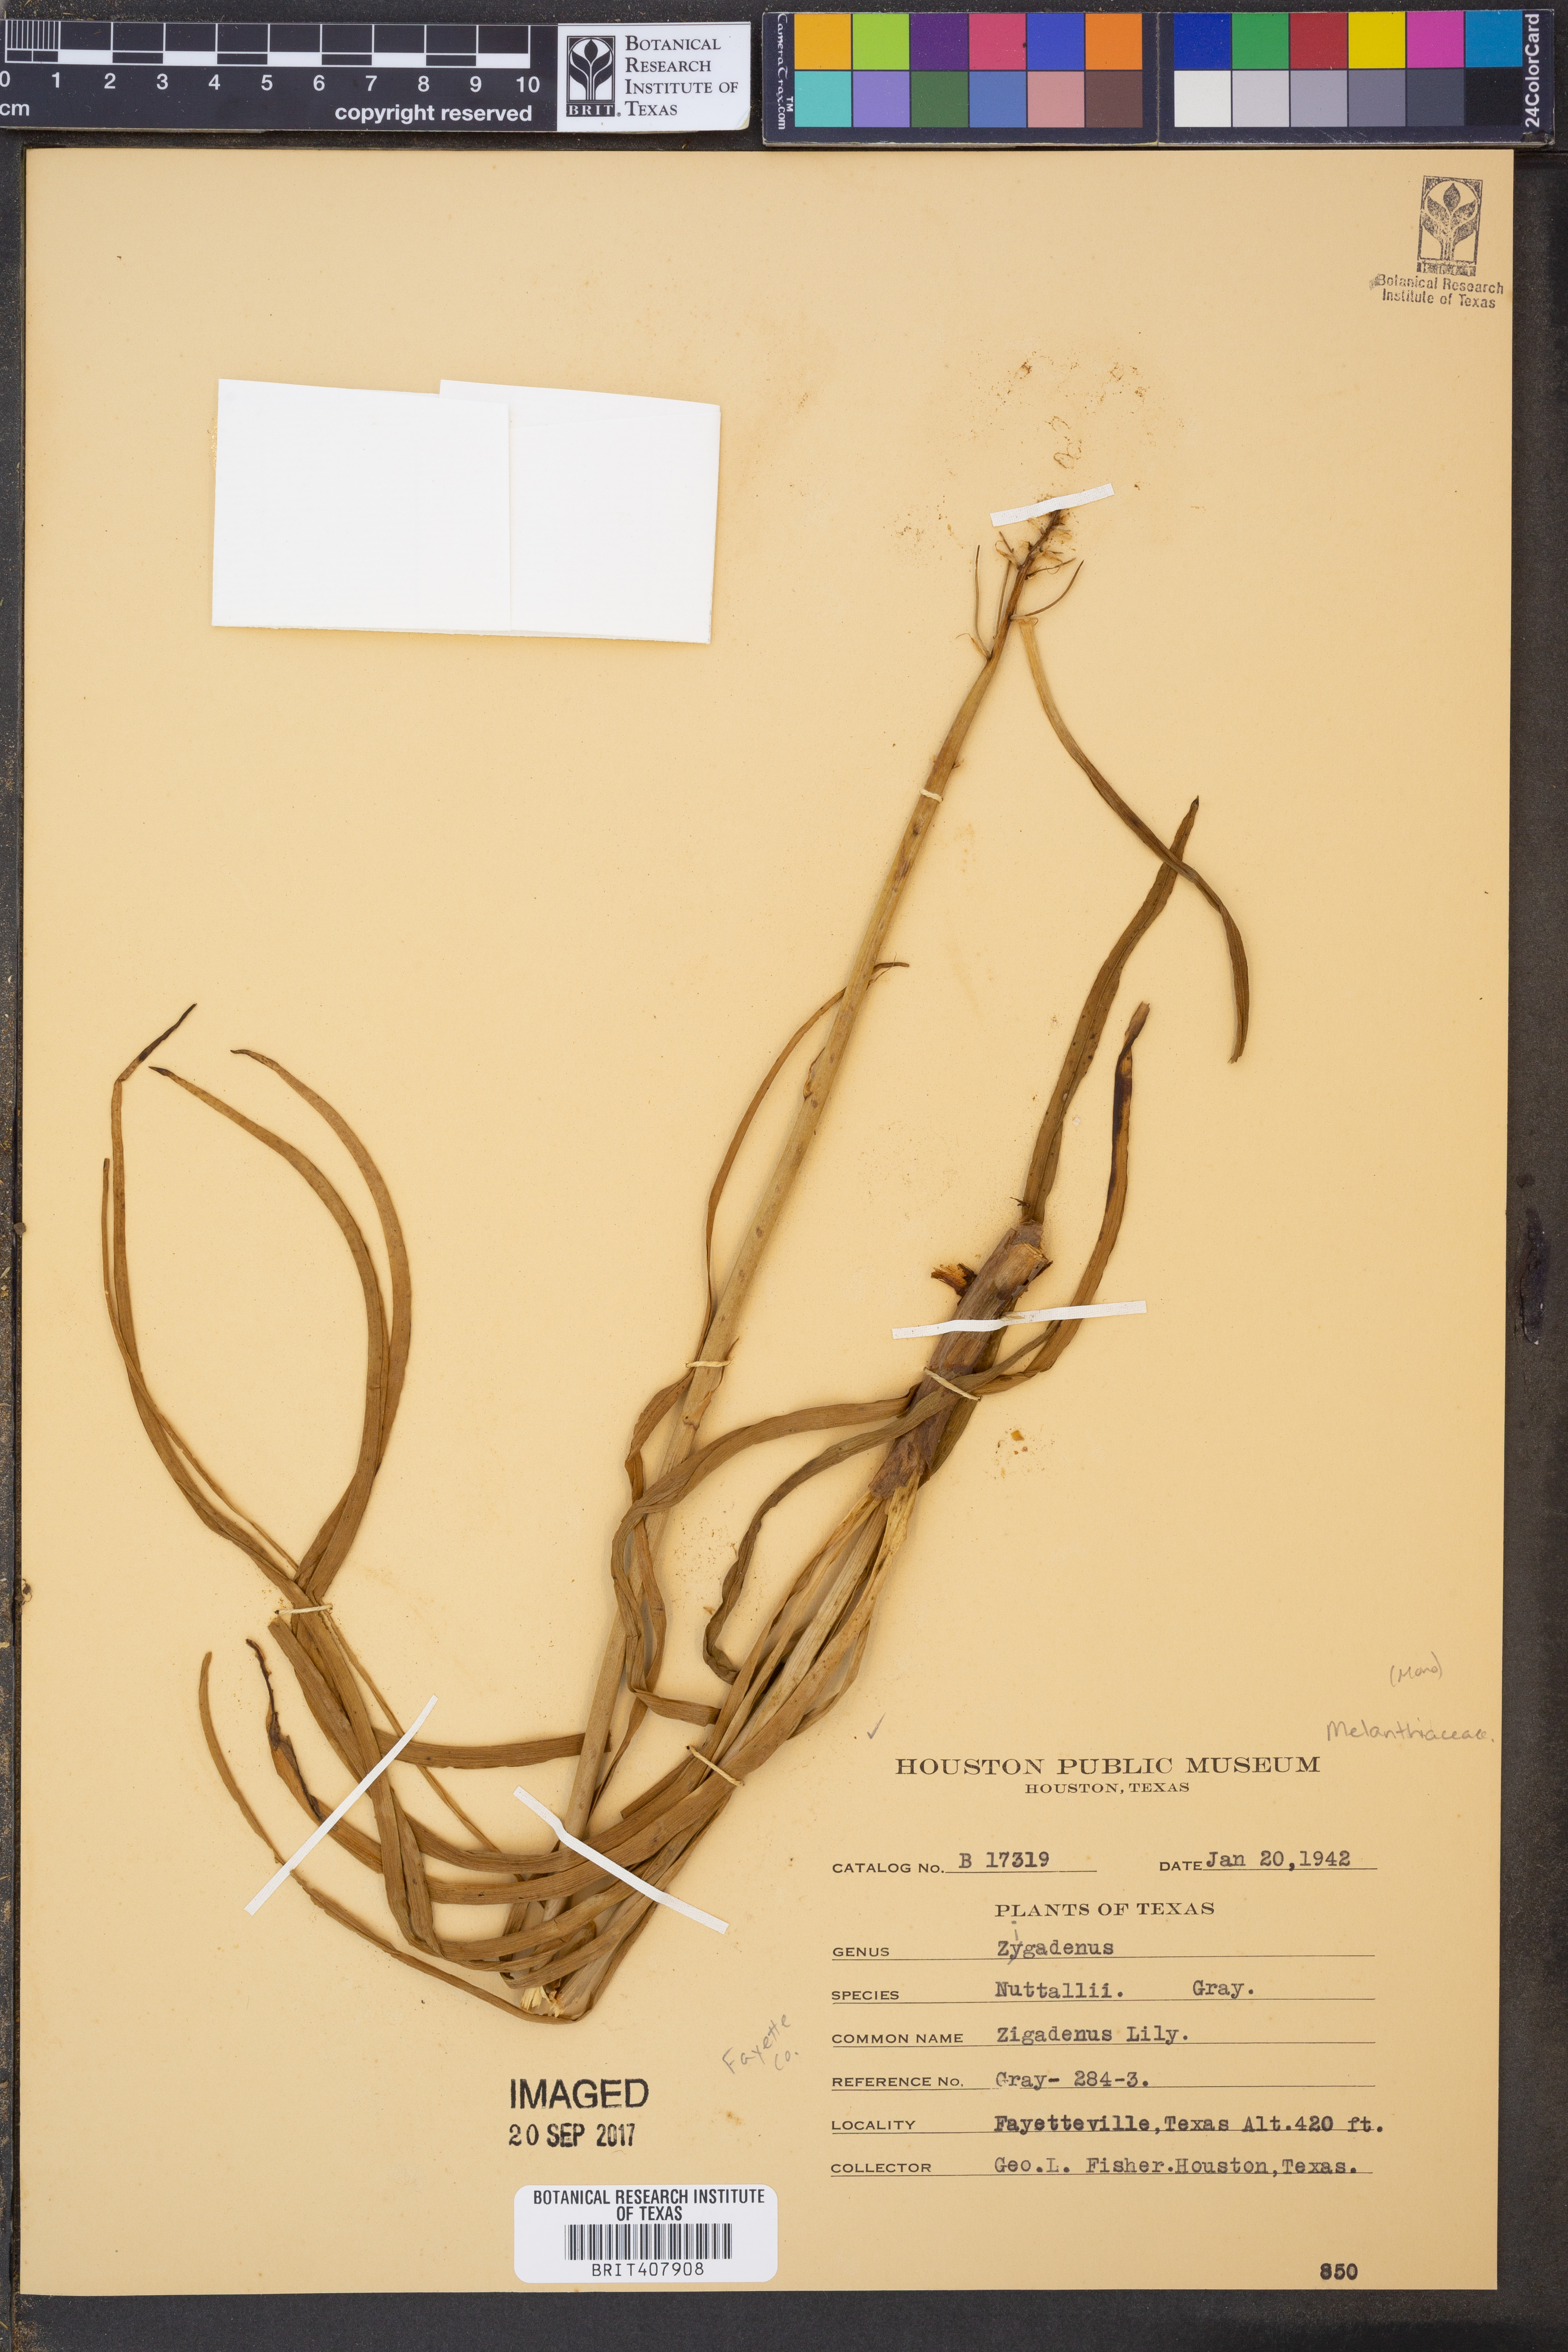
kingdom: Plantae
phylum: Tracheophyta
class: Liliopsida
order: Liliales
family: Melanthiaceae
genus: Toxicoscordion
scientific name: Toxicoscordion nuttallii
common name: Poison sego
